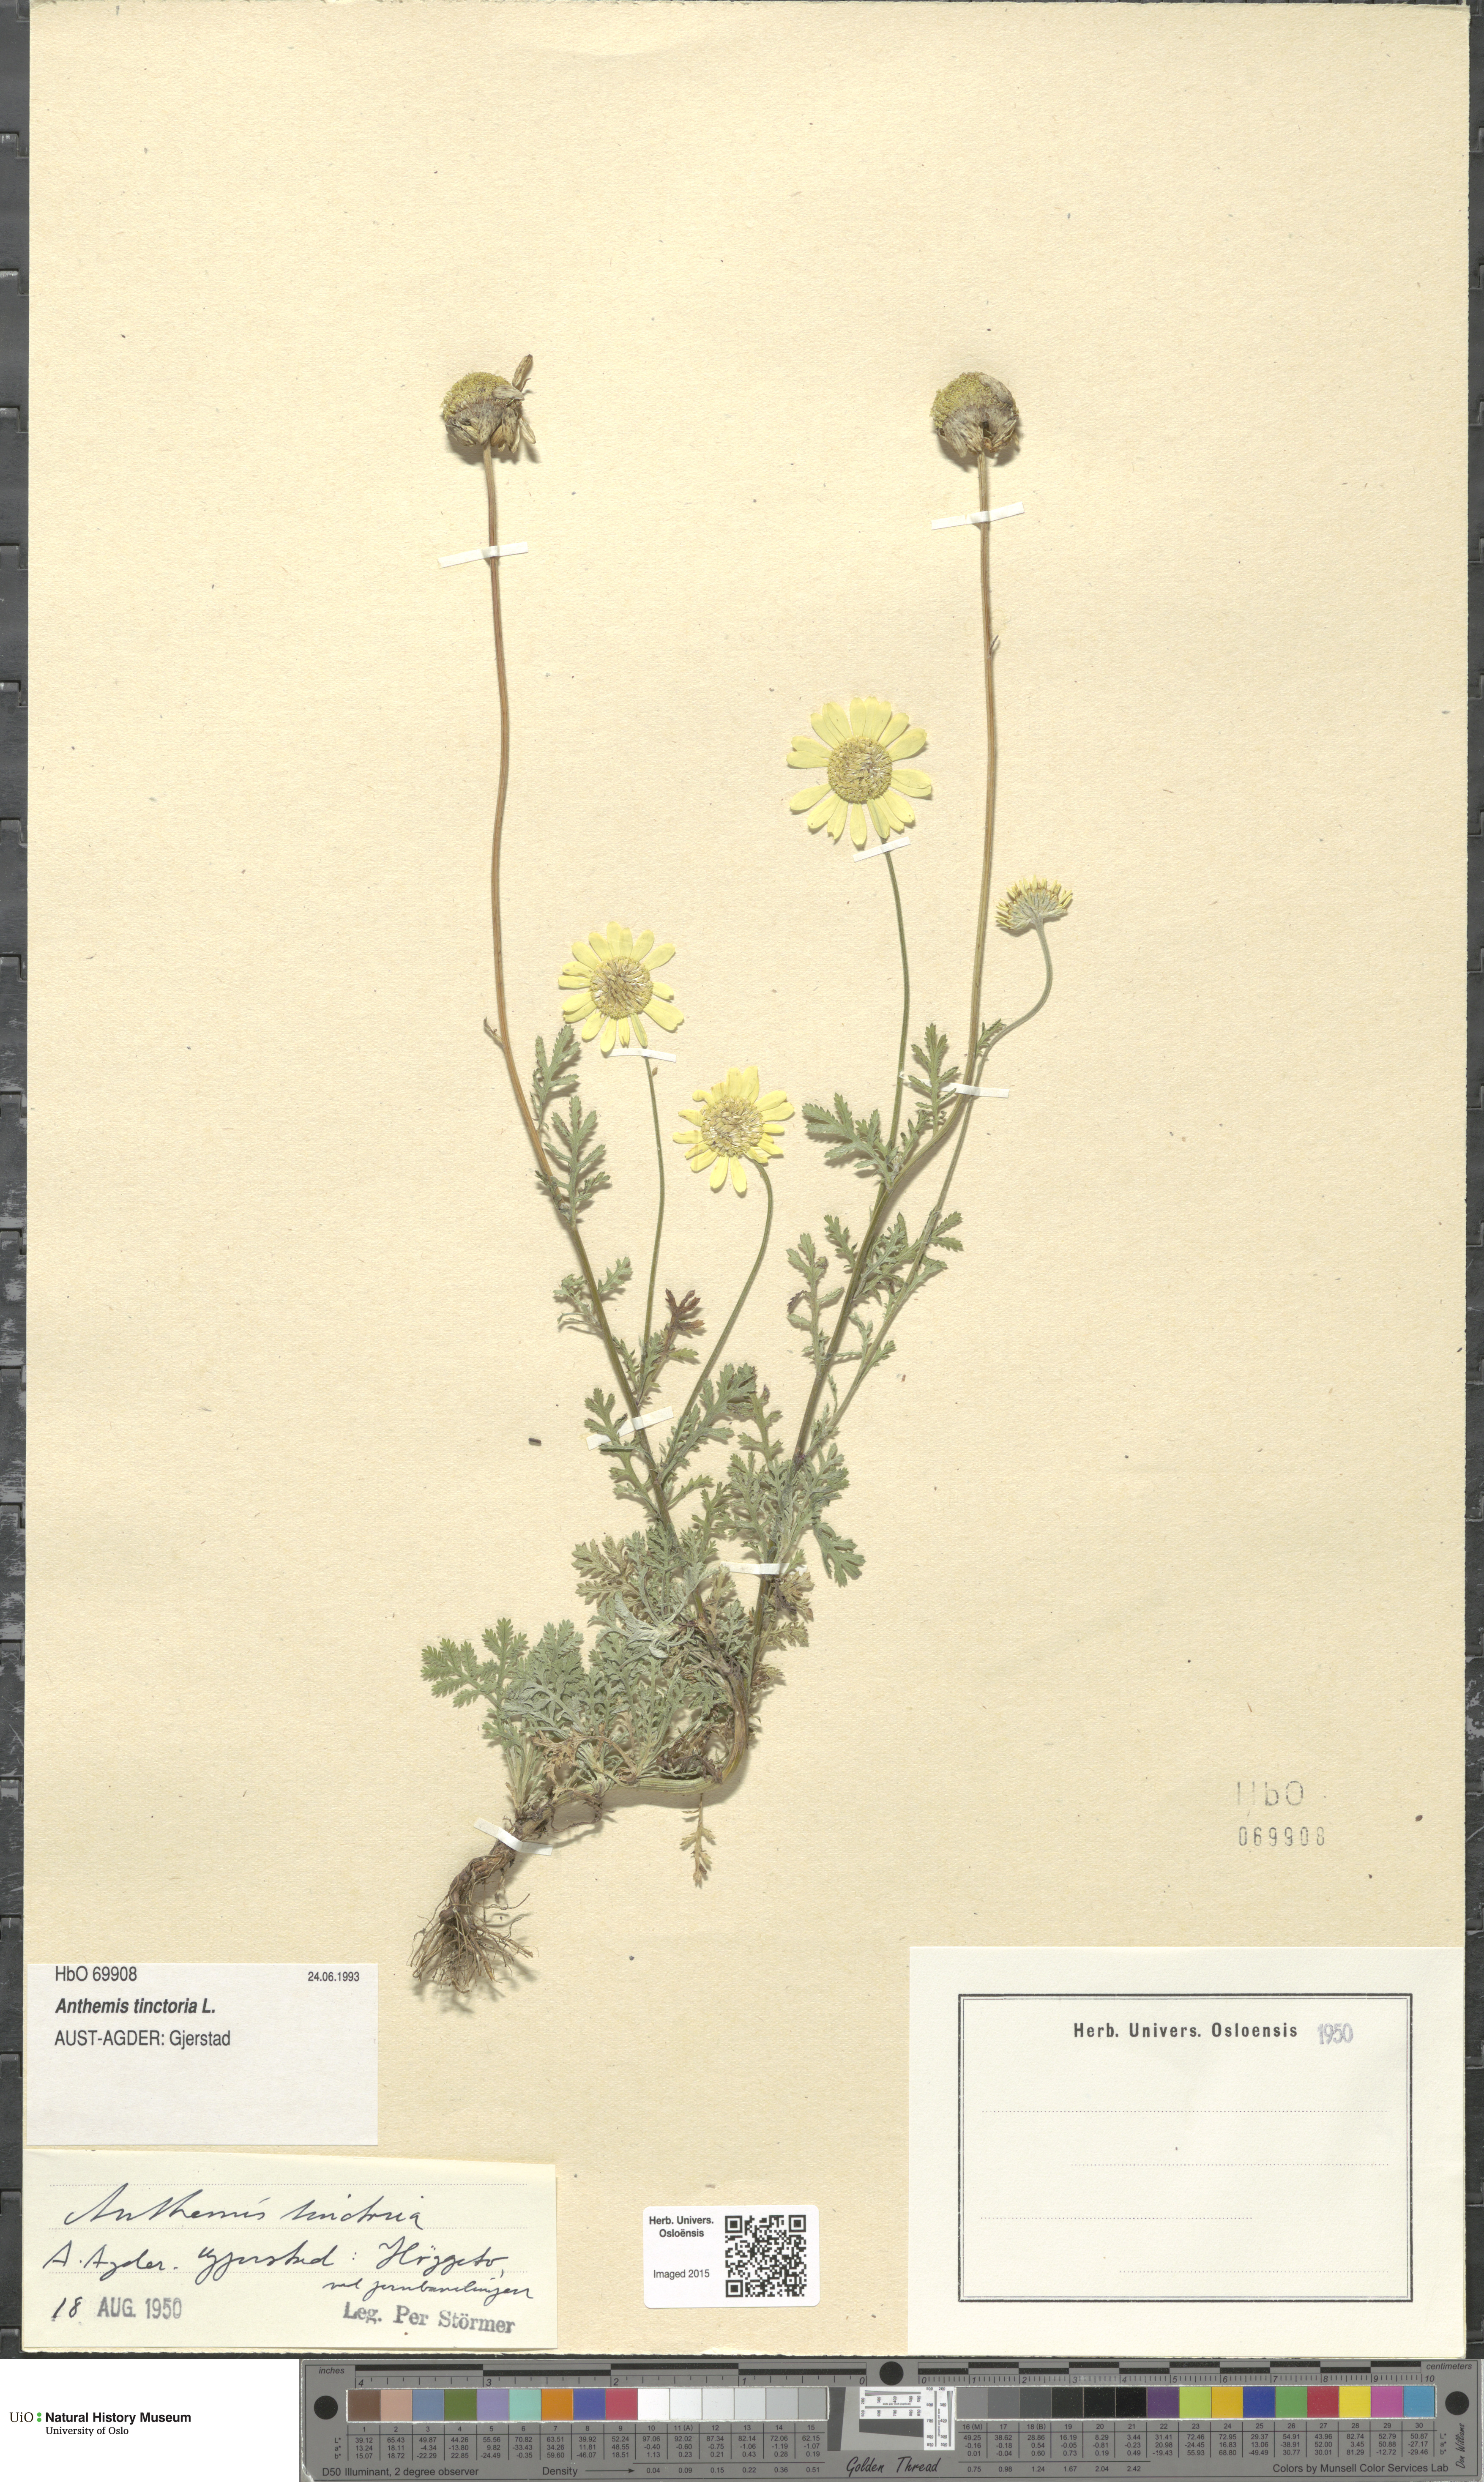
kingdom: Plantae
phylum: Tracheophyta
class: Magnoliopsida
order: Asterales
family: Asteraceae
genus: Cota
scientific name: Cota tinctoria
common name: Golden chamomile
